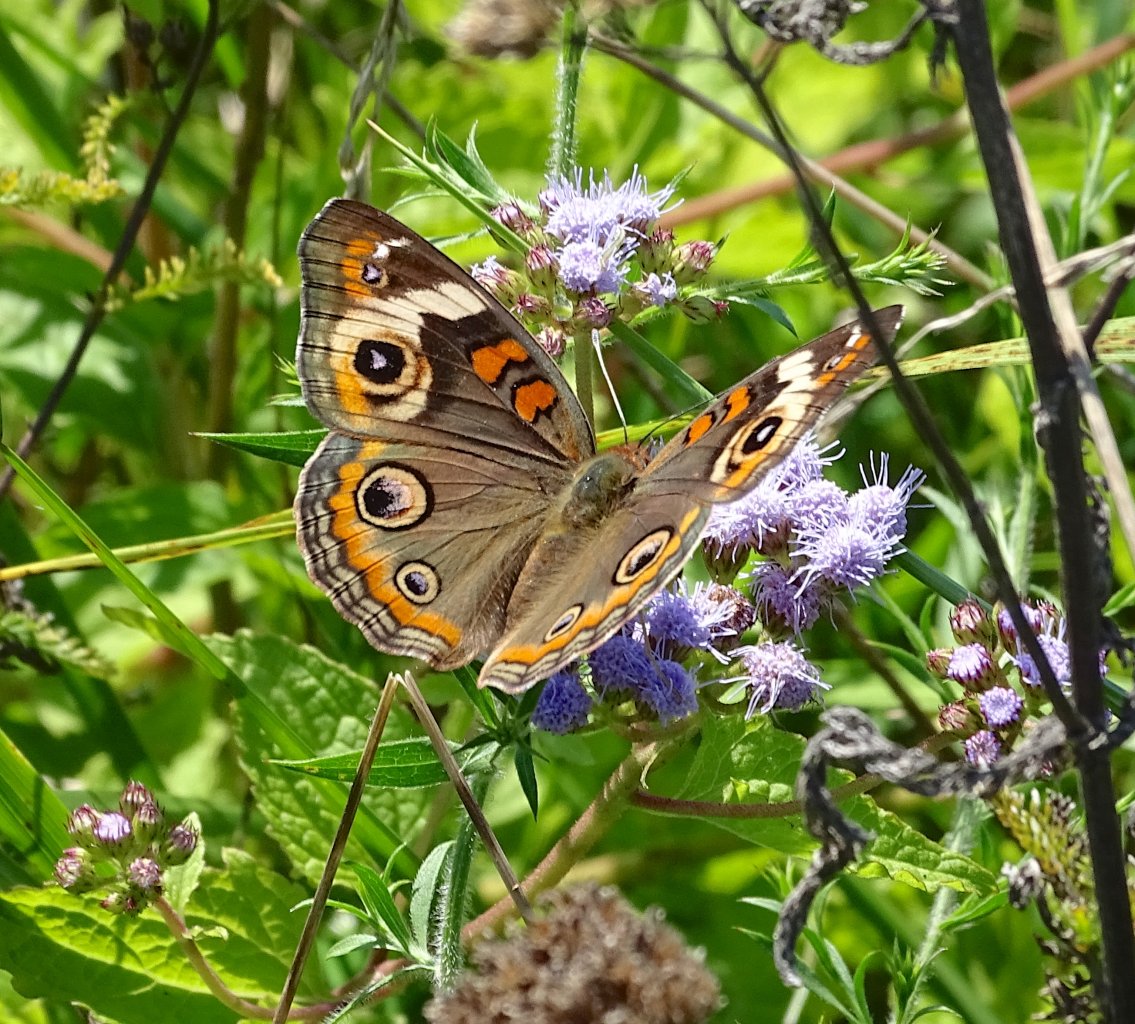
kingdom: Animalia
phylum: Arthropoda
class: Insecta
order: Lepidoptera
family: Nymphalidae
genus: Junonia
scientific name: Junonia coenia
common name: Common Buckeye
